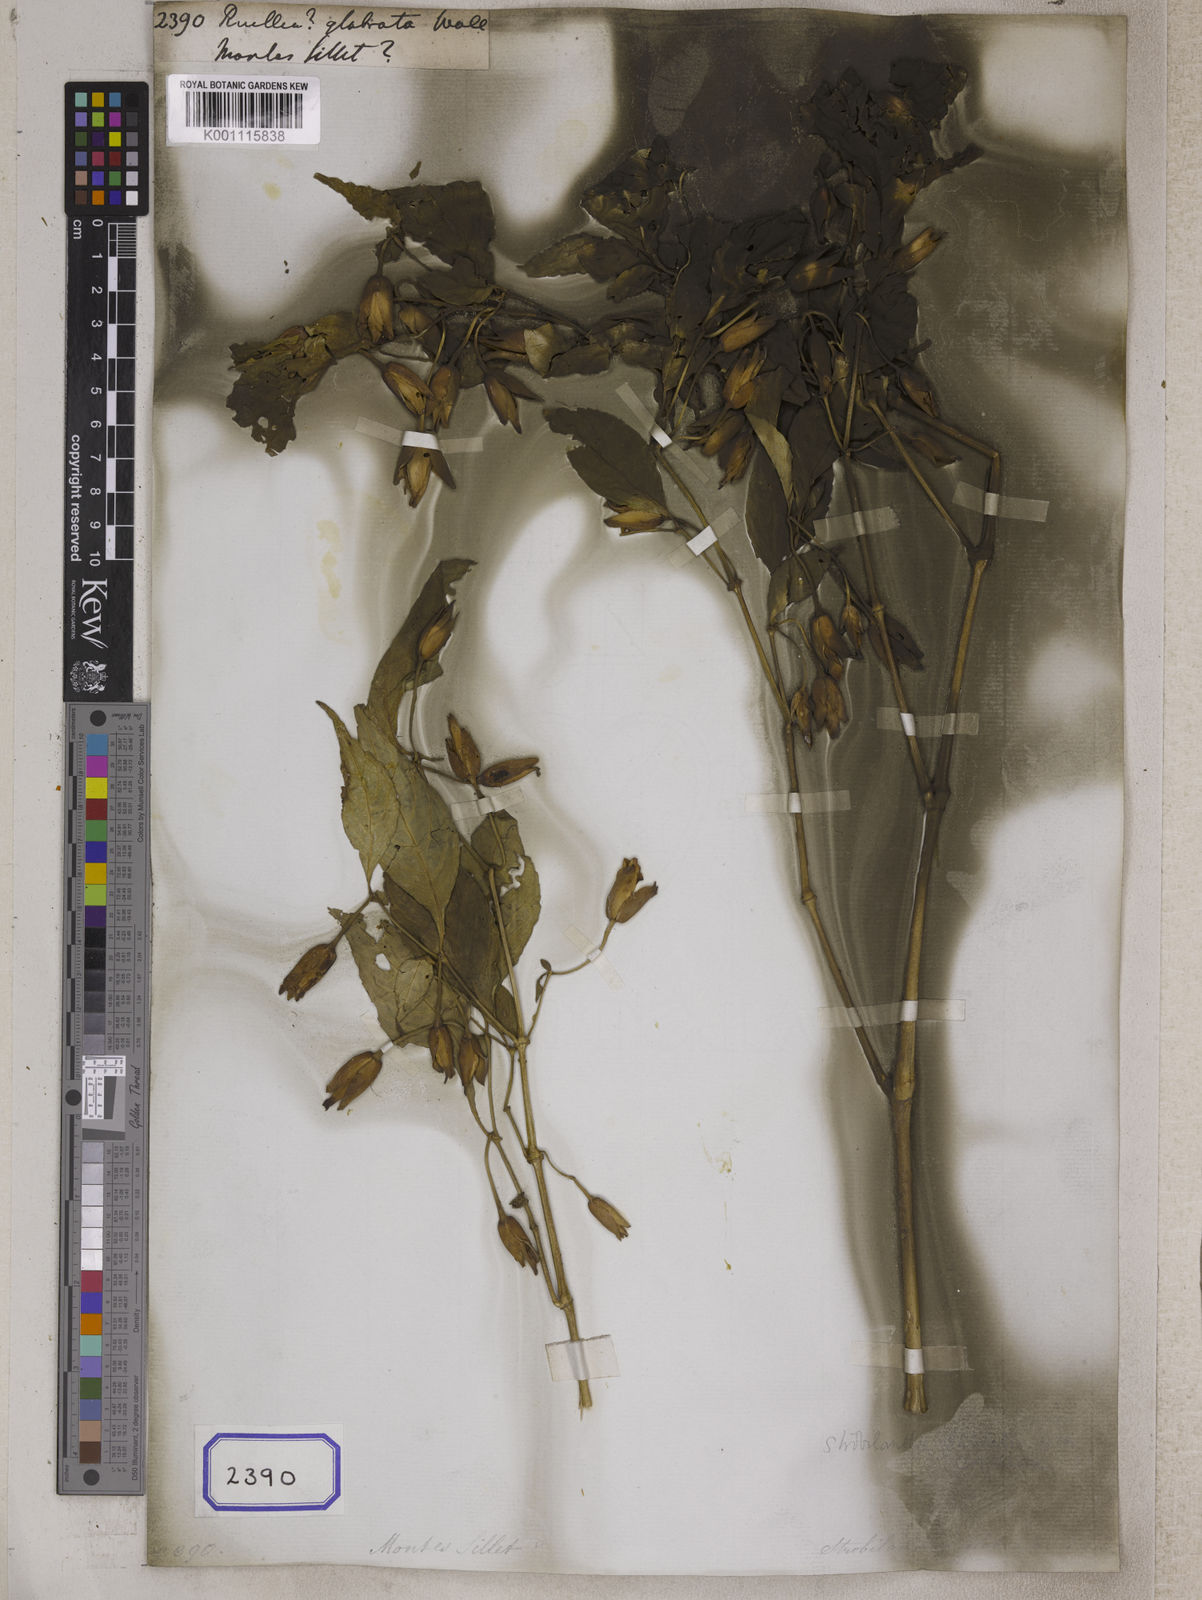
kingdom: Plantae
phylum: Tracheophyta
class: Magnoliopsida
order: Lamiales
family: Acanthaceae
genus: Strobilanthes
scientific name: Strobilanthes glabrata
